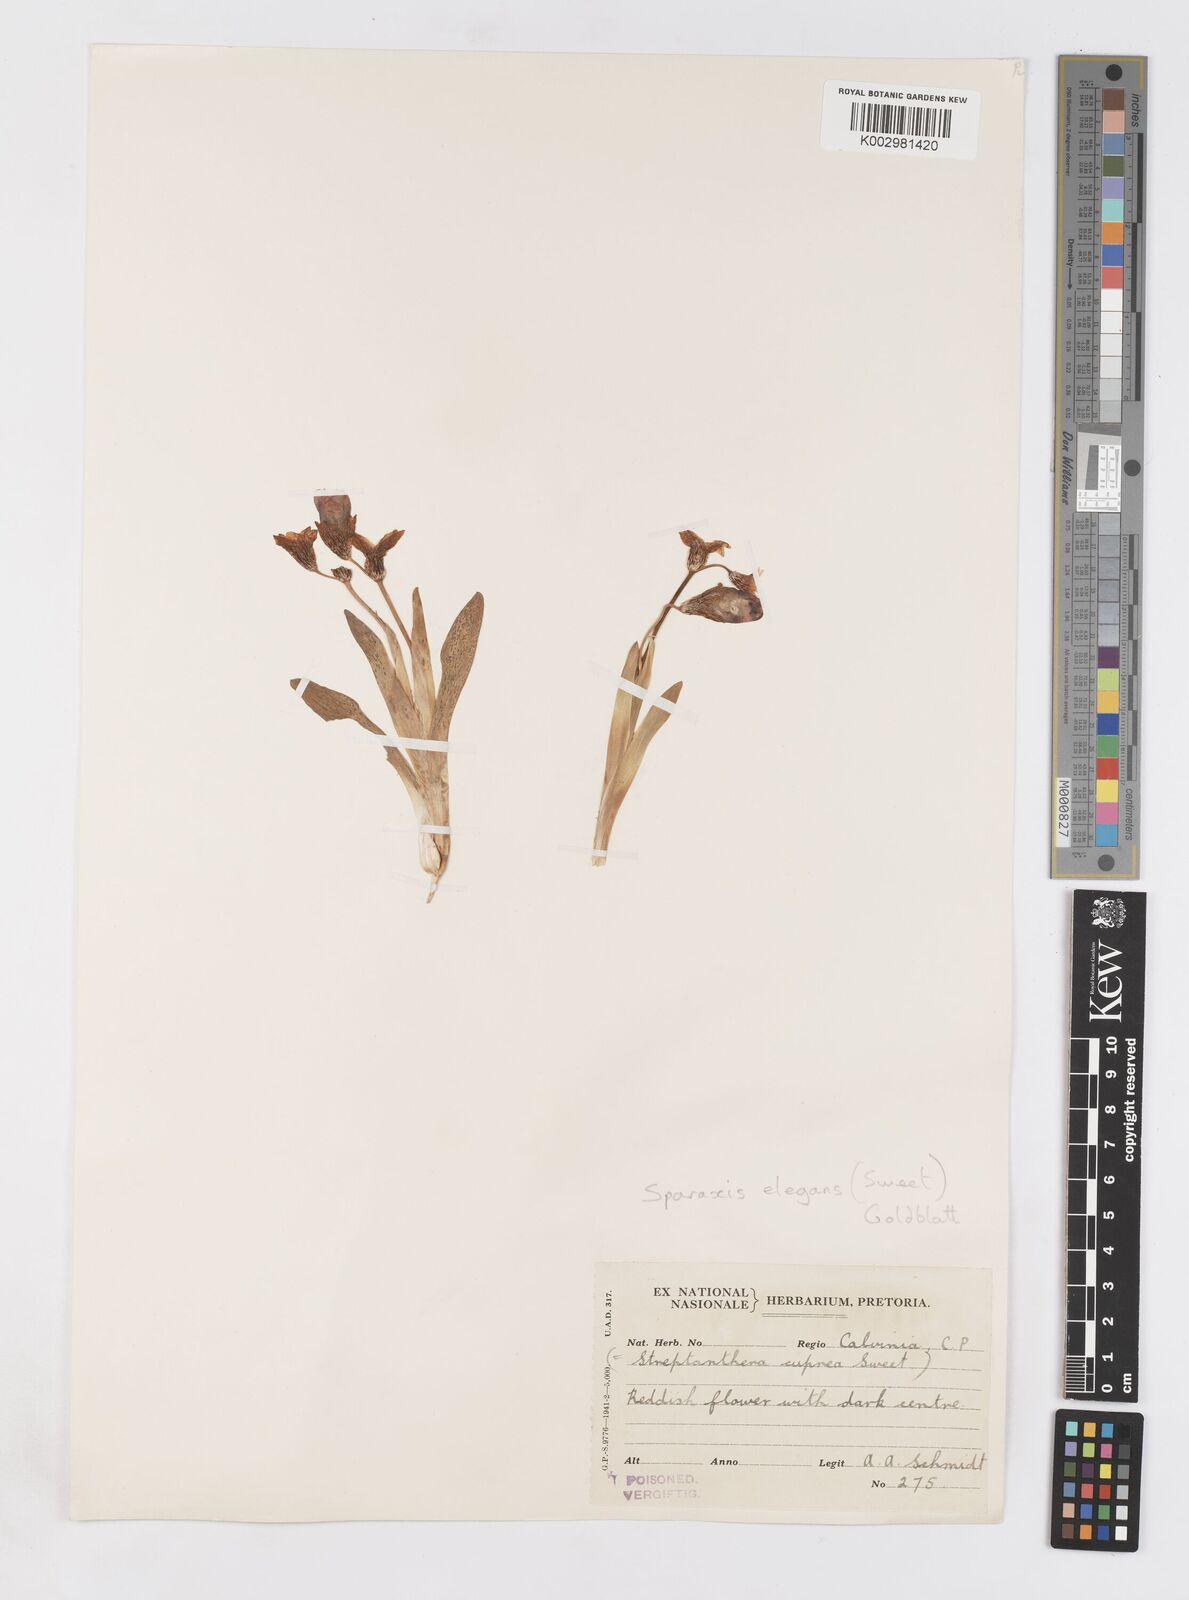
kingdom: Plantae
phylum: Tracheophyta
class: Liliopsida
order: Asparagales
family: Iridaceae
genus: Sparaxis
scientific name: Sparaxis elegans
